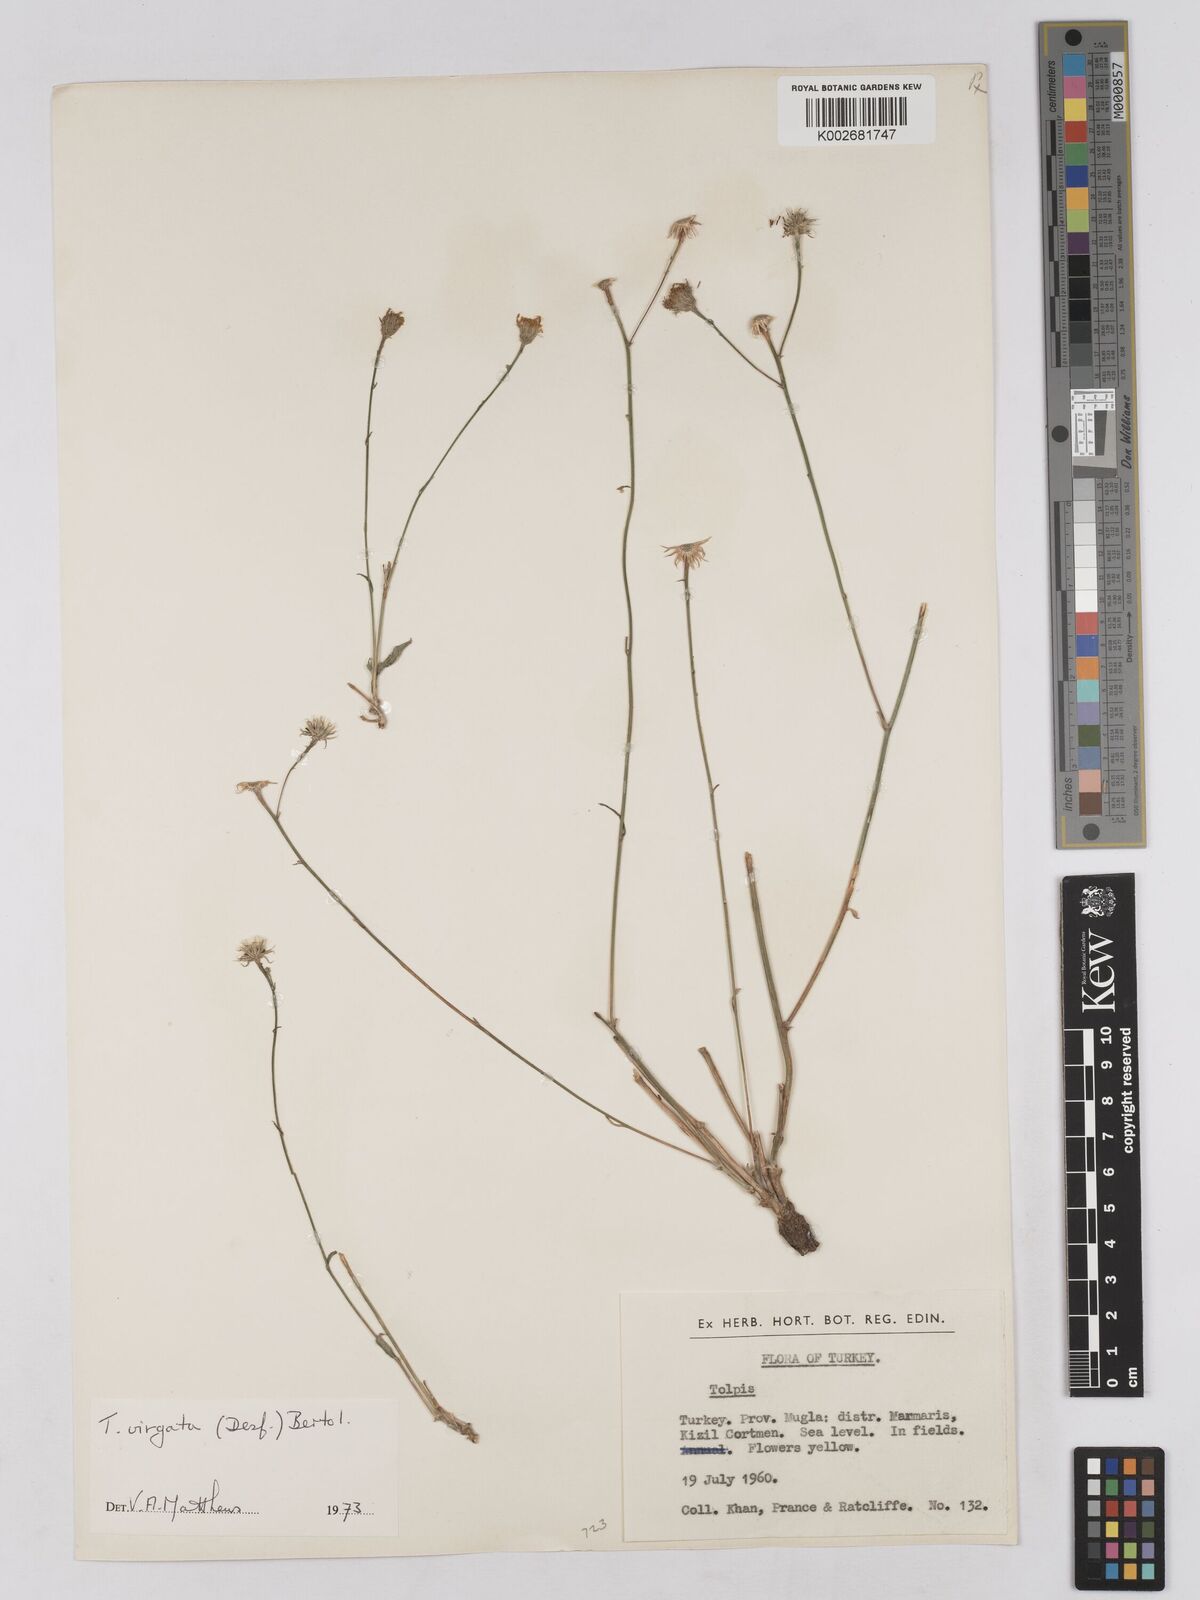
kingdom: Plantae
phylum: Tracheophyta
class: Magnoliopsida
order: Asterales
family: Asteraceae
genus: Tolpis
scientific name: Tolpis virgata
